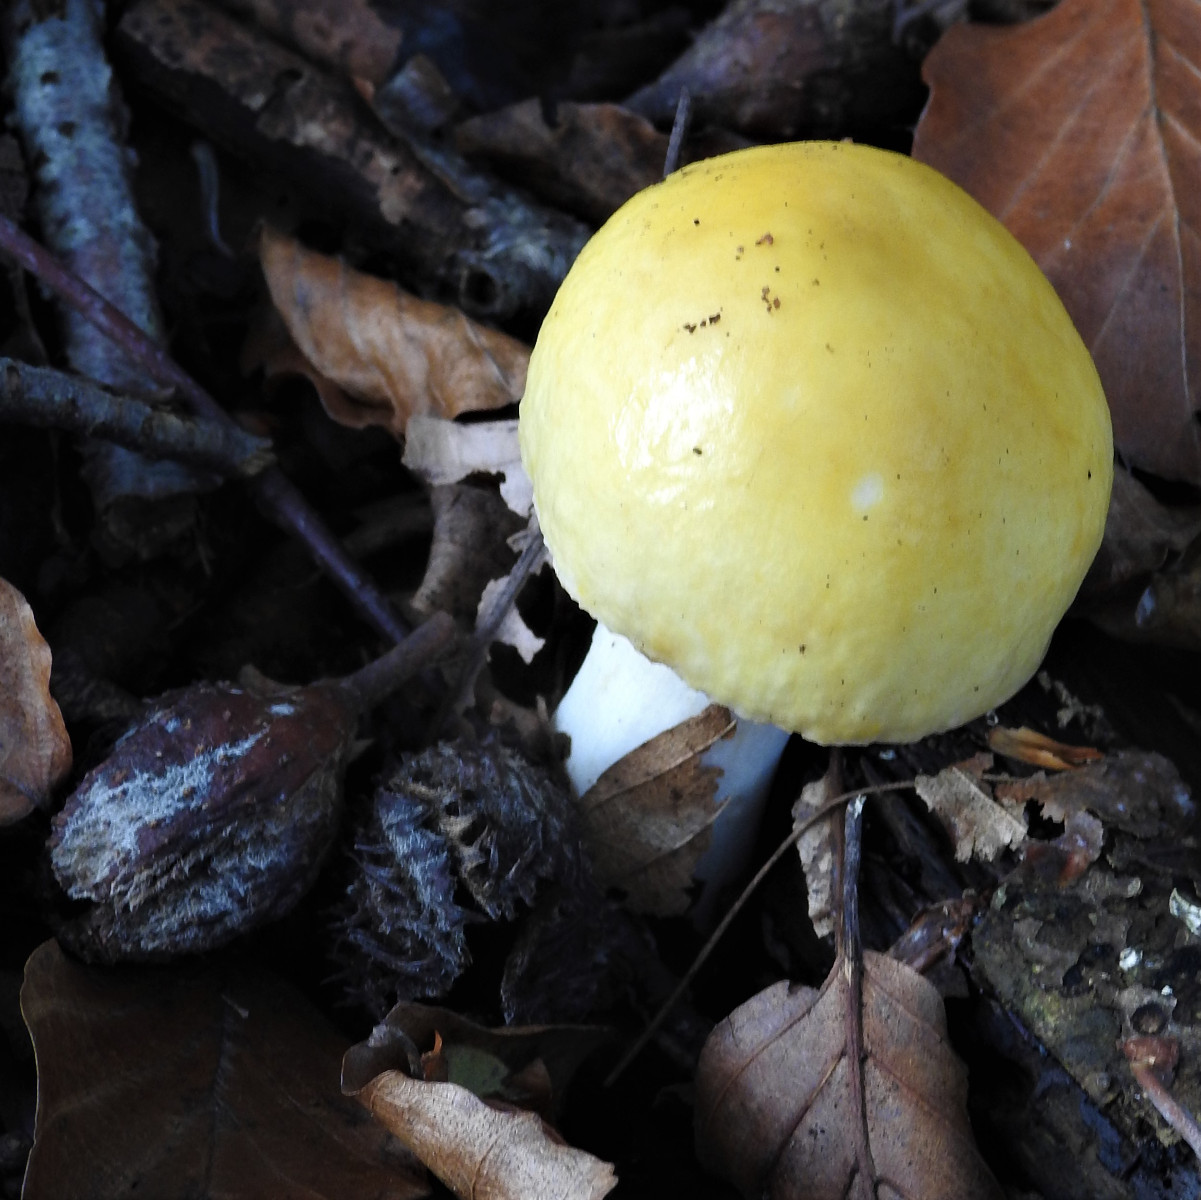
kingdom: Fungi
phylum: Basidiomycota
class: Agaricomycetes
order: Russulales
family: Russulaceae
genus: Russula
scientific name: Russula solaris
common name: sol-skørhat
